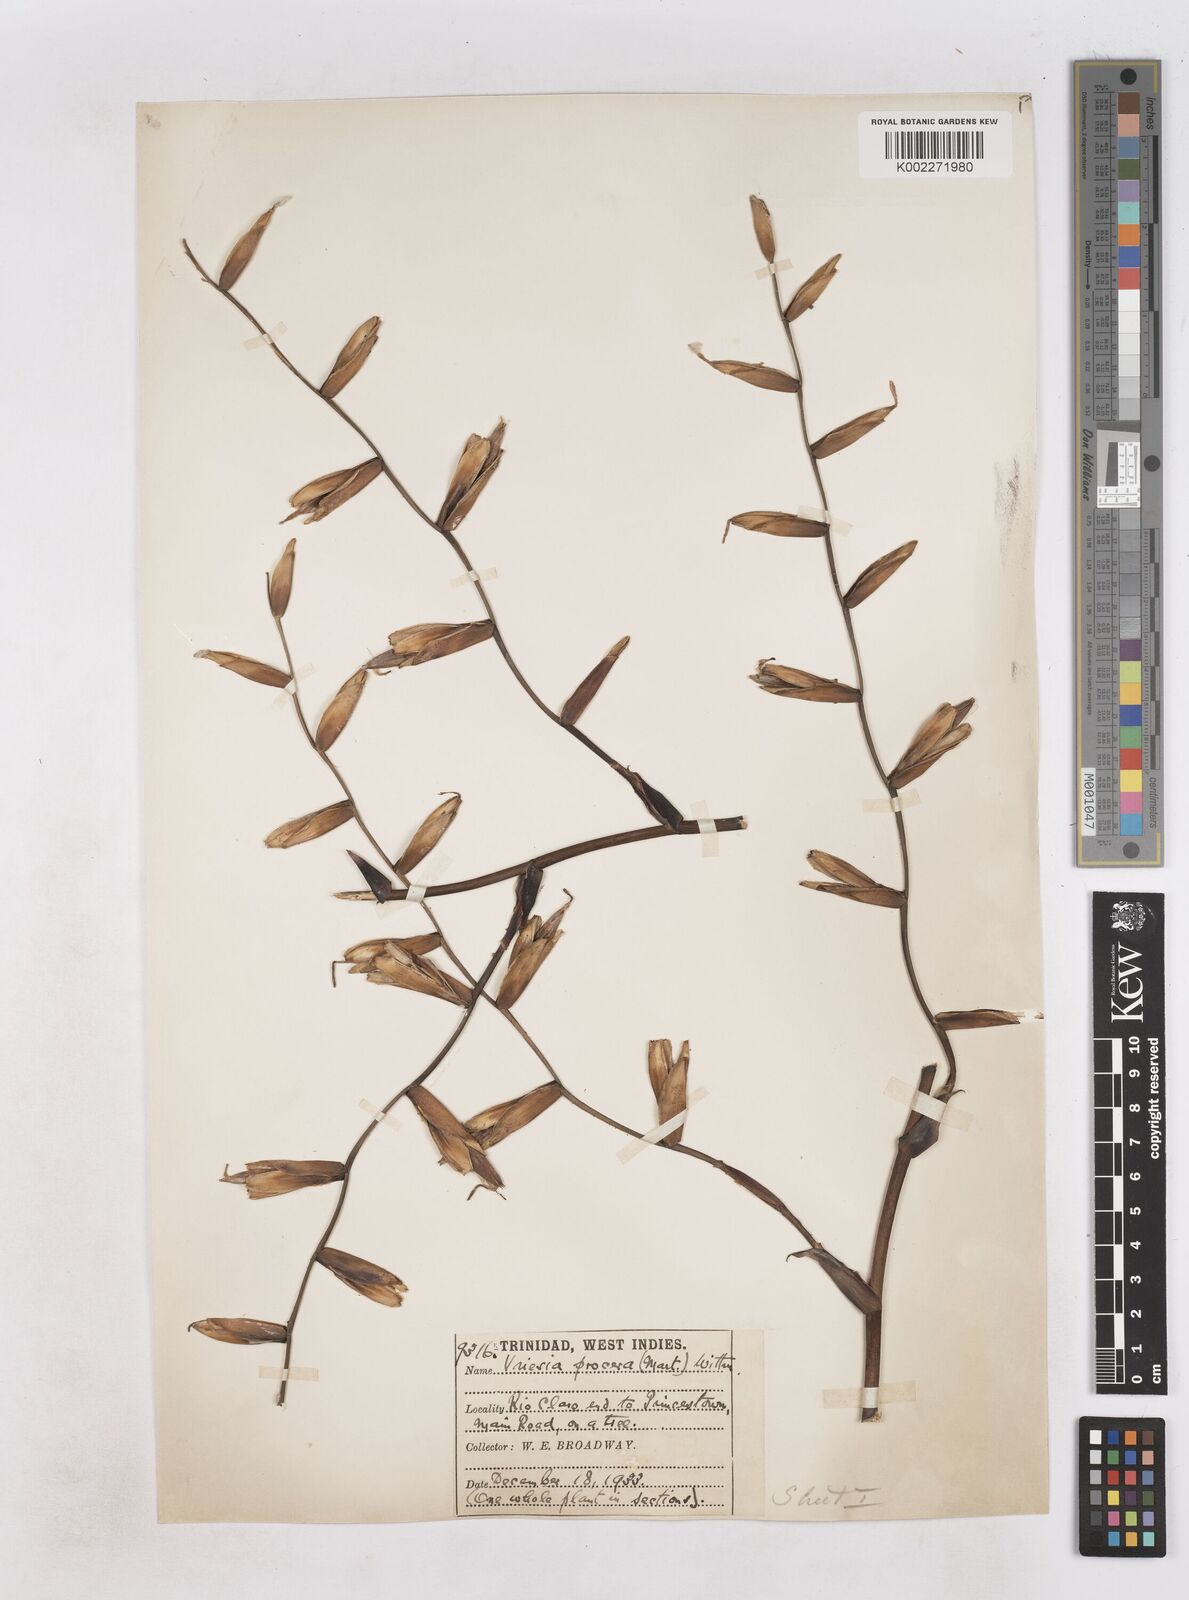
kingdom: Plantae
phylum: Tracheophyta
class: Liliopsida
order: Poales
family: Bromeliaceae
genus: Vriesea
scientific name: Vriesea procera
